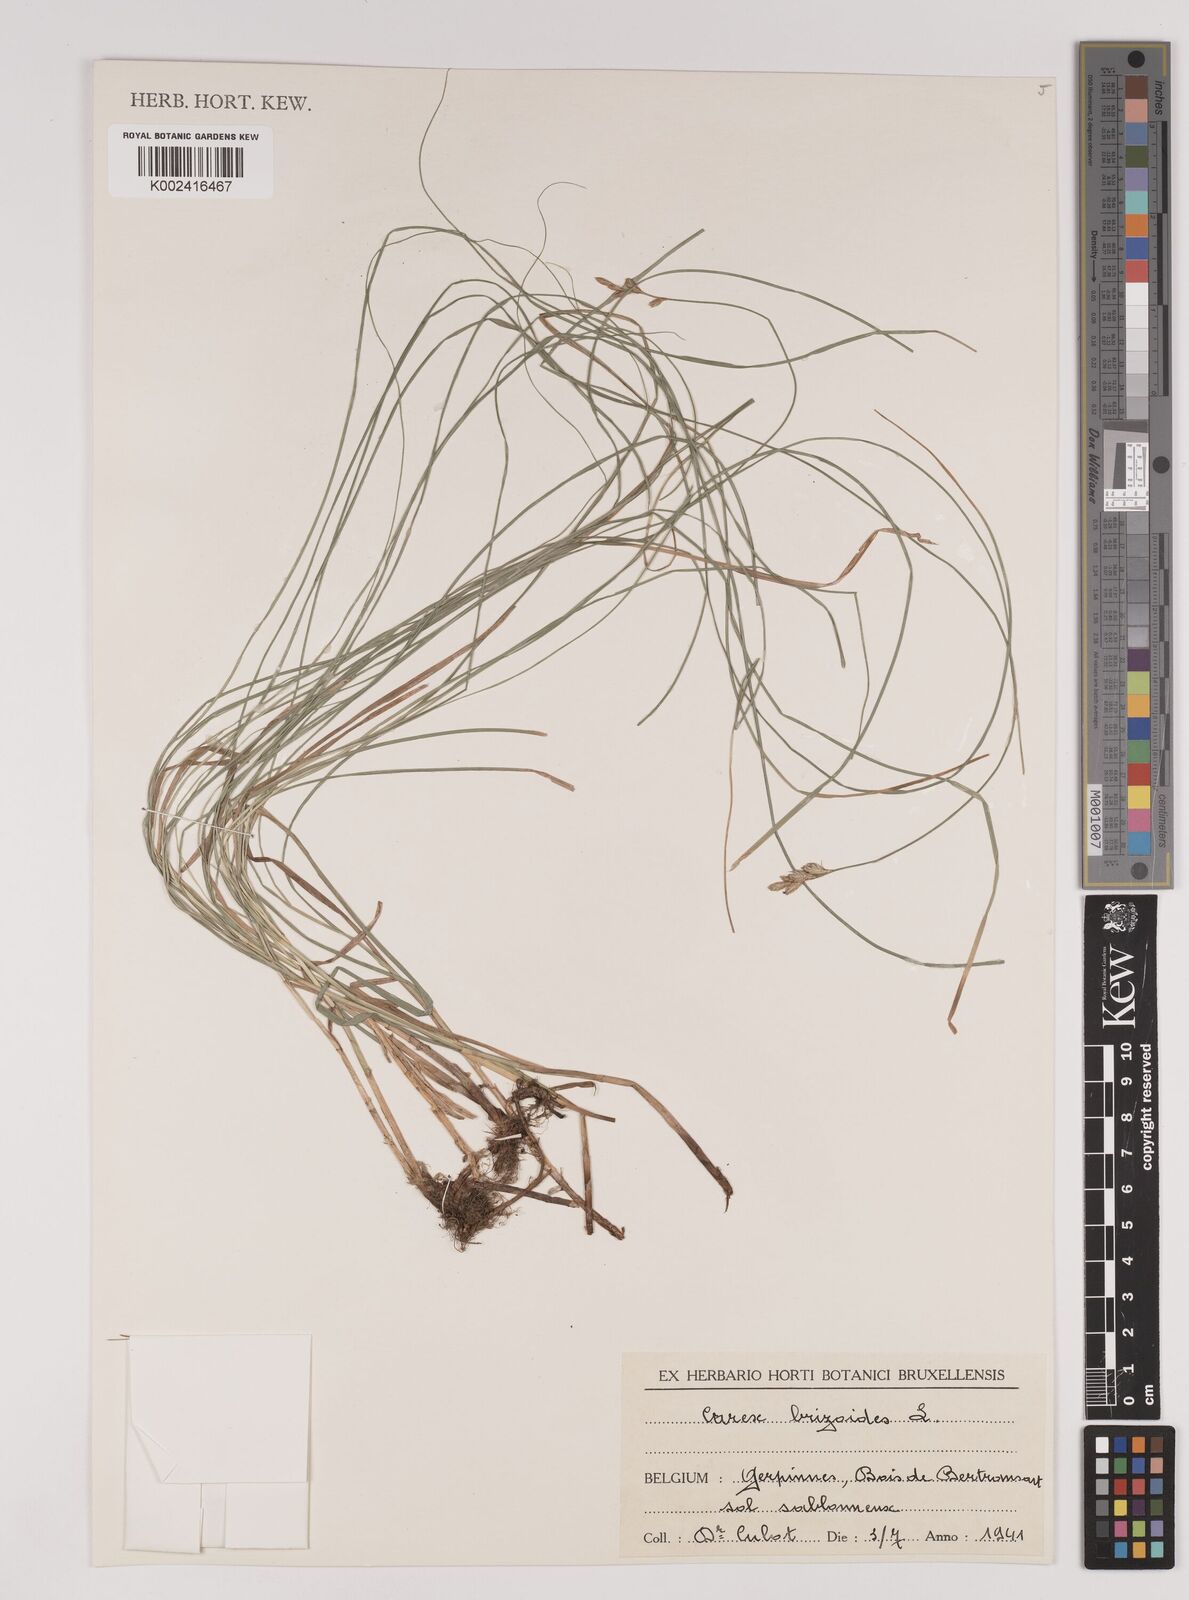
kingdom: Plantae
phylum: Tracheophyta
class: Liliopsida
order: Poales
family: Cyperaceae
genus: Carex
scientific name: Carex brizoides
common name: Quaking-grass sedge
